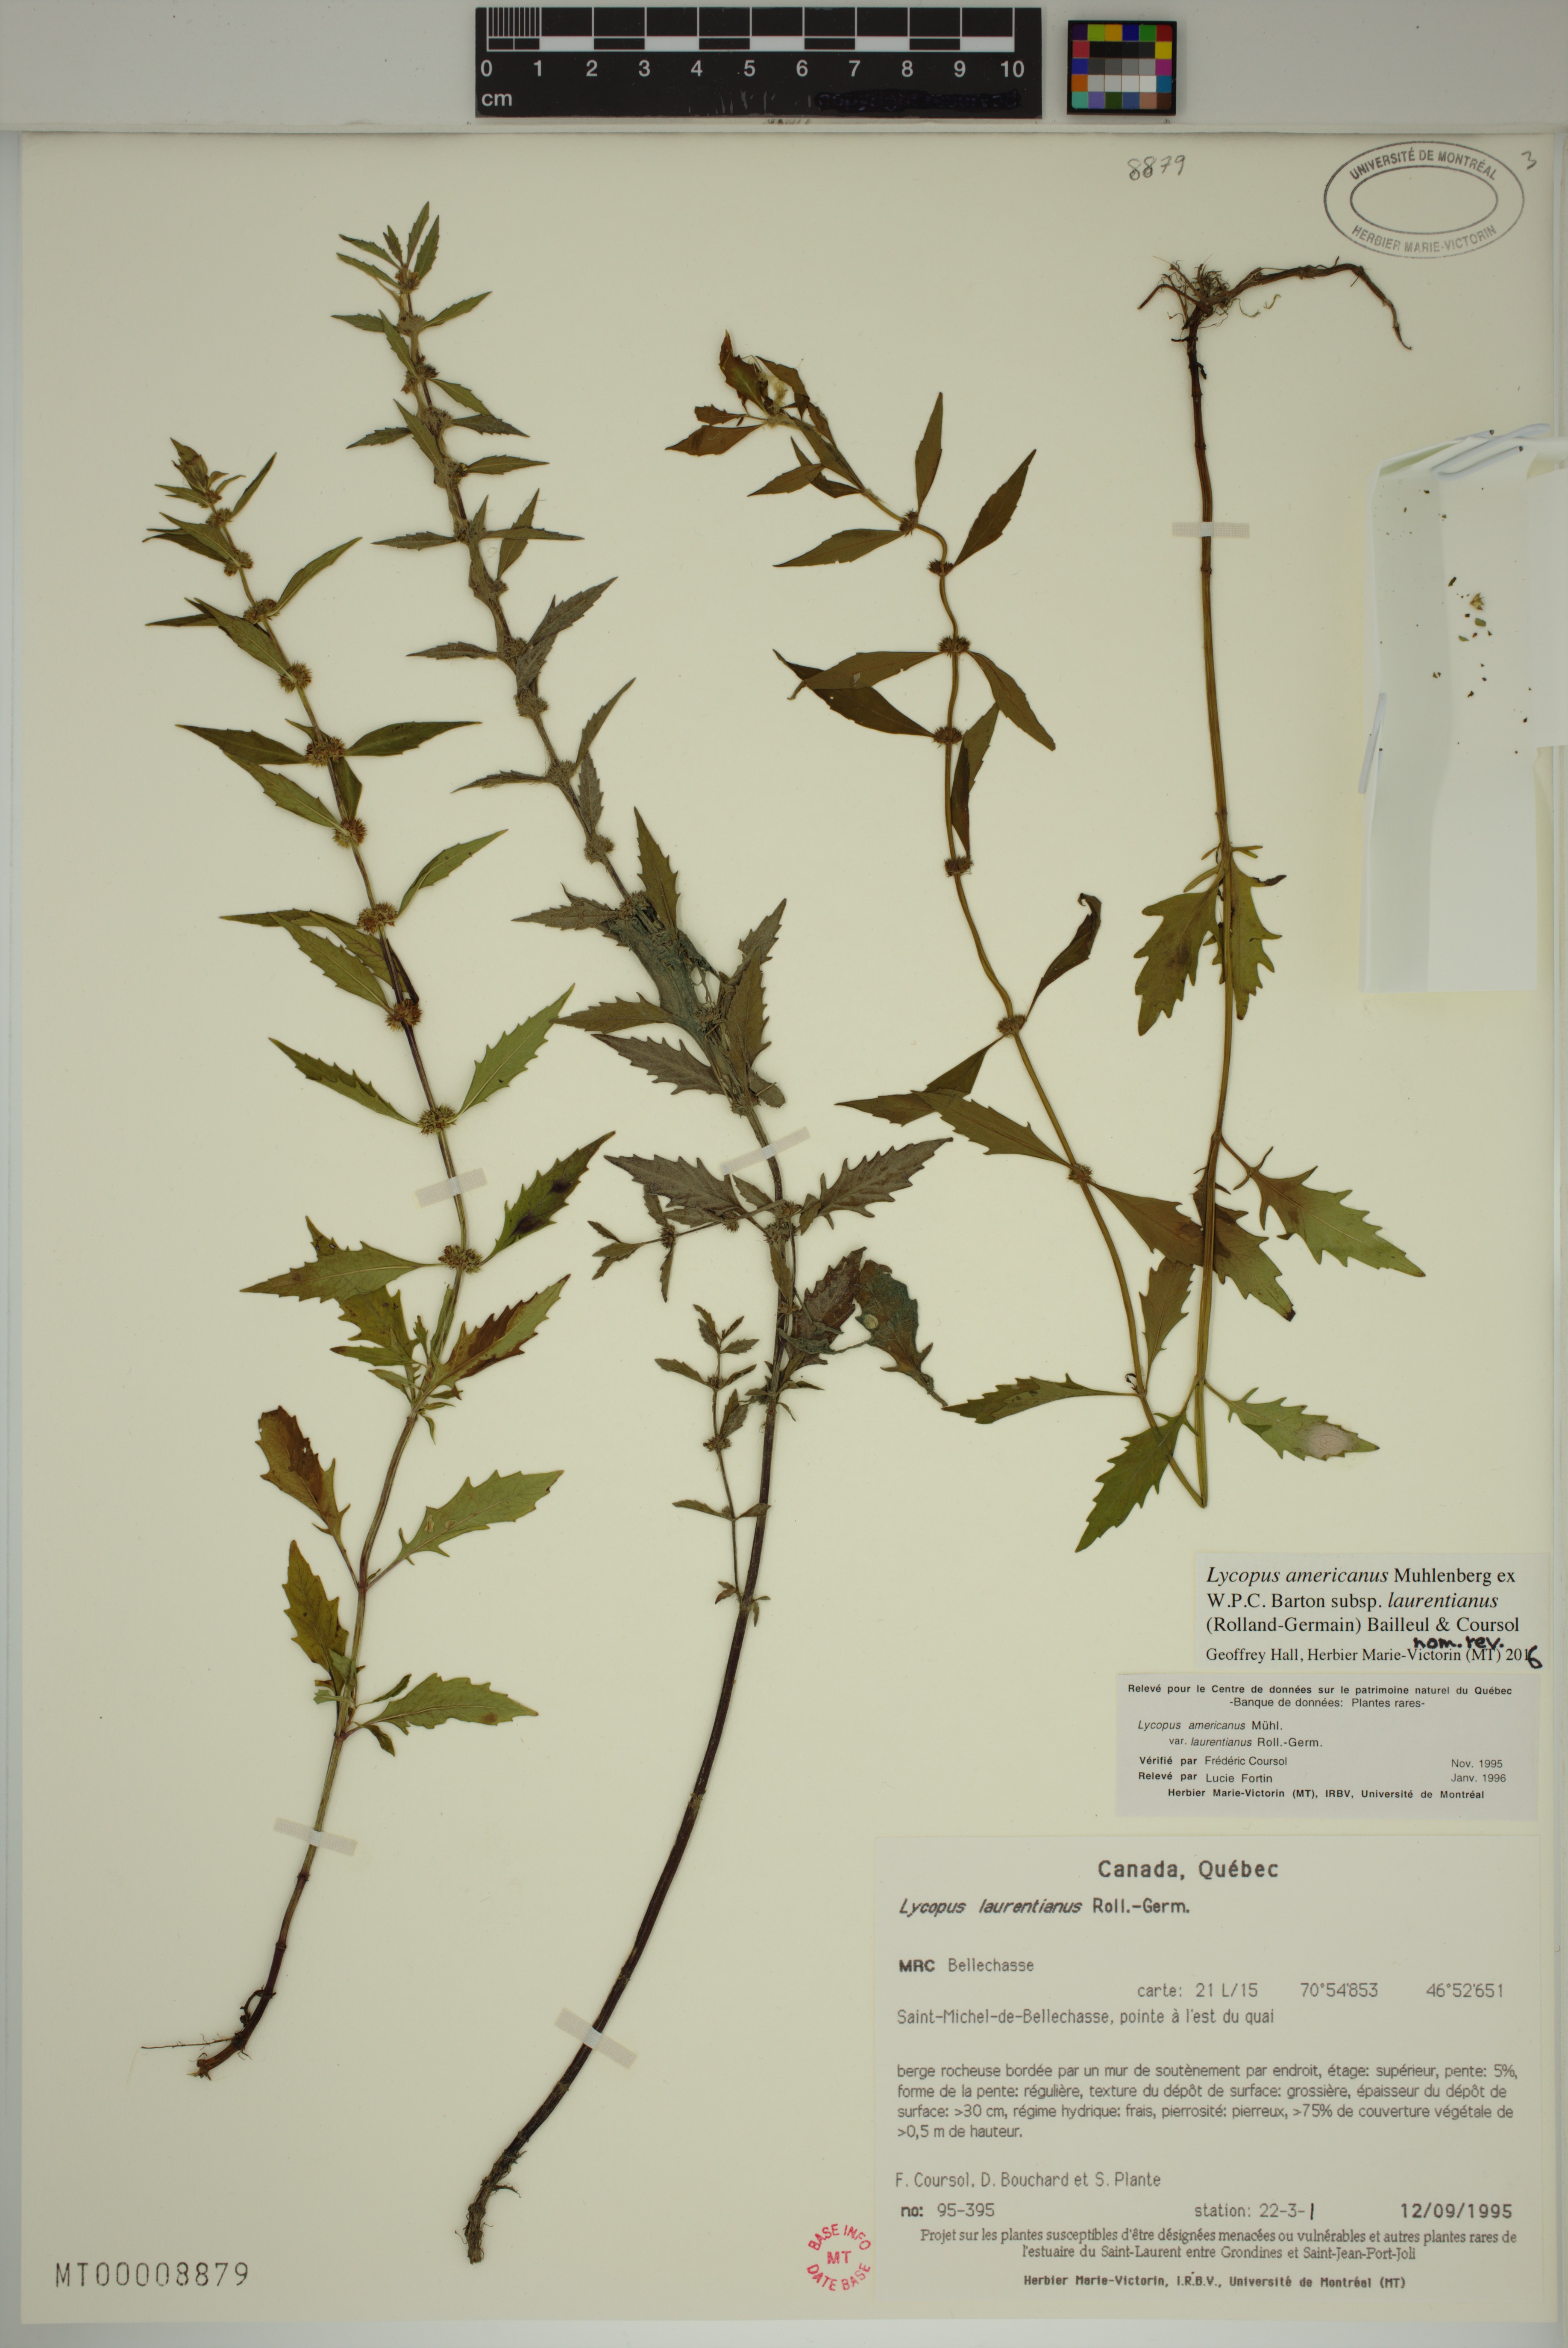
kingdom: Plantae
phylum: Tracheophyta
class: Magnoliopsida
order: Lamiales
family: Lamiaceae
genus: Lycopus
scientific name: Lycopus americanus
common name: American bugleweed
